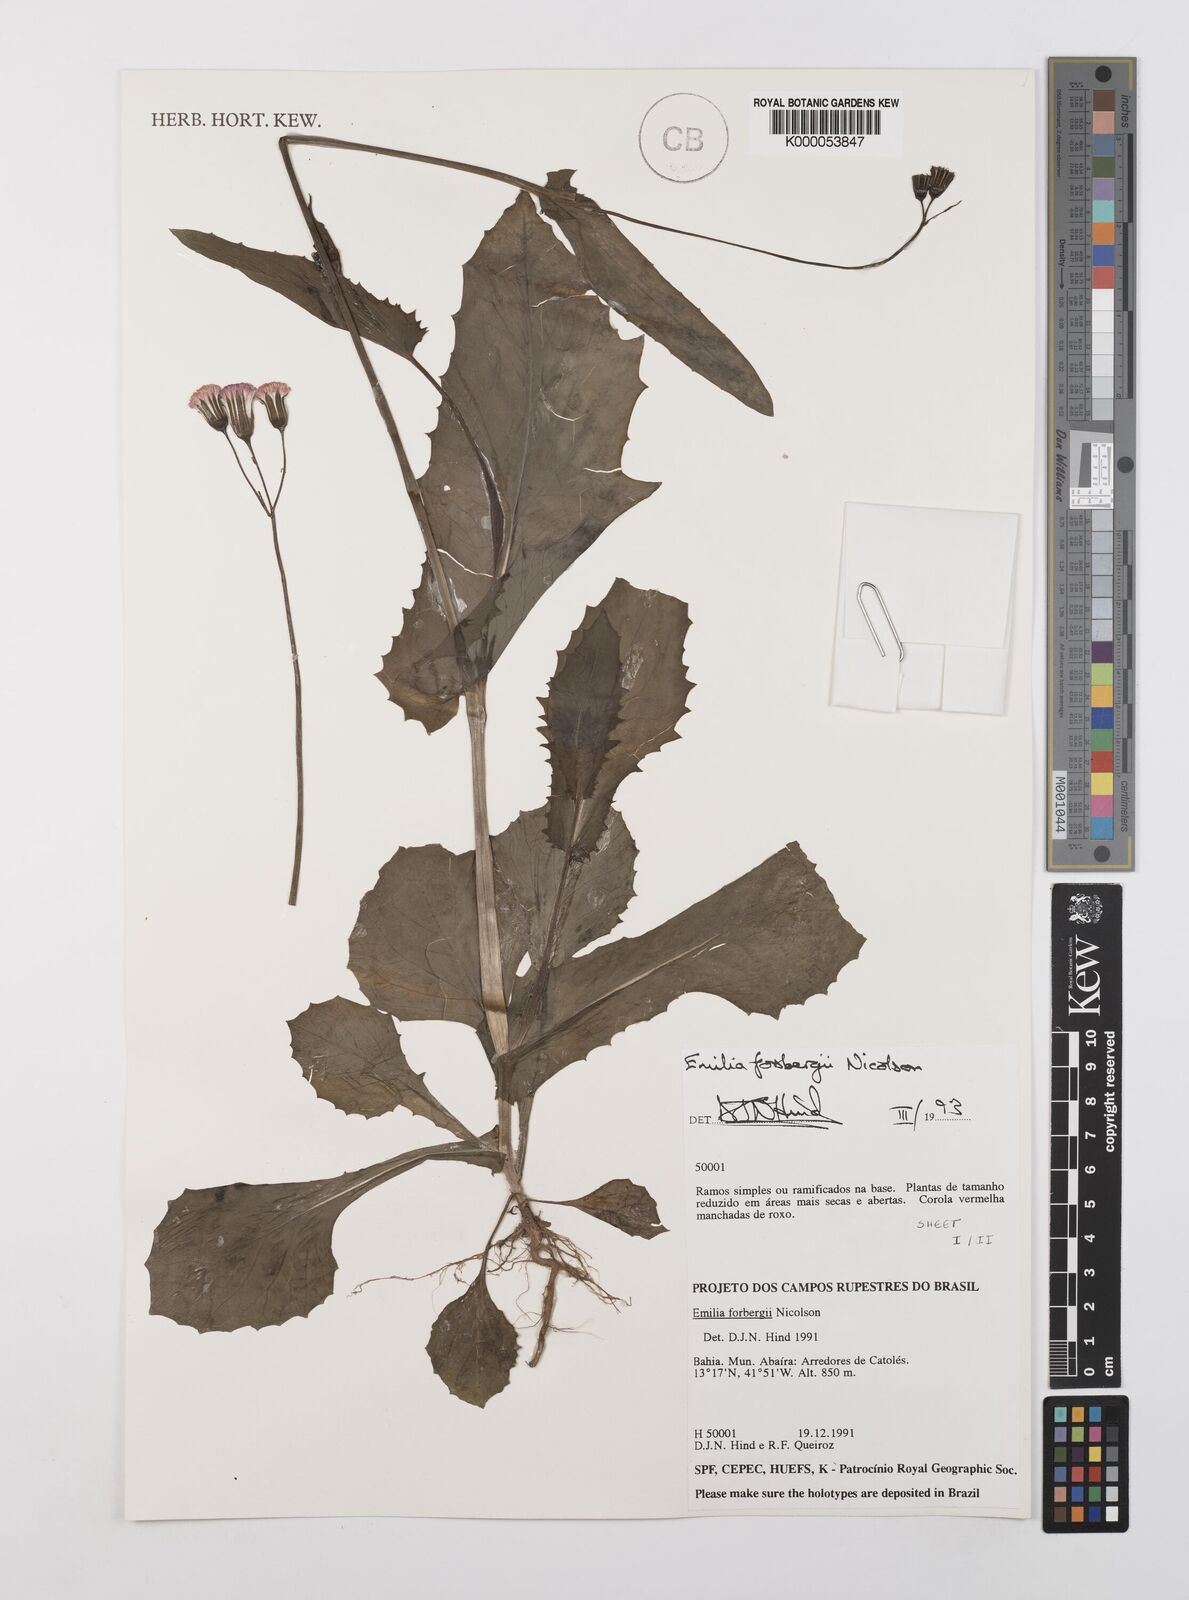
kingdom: Plantae
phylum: Tracheophyta
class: Magnoliopsida
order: Asterales
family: Asteraceae
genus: Emilia
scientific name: Emilia fosbergii
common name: Florida tasselflower
